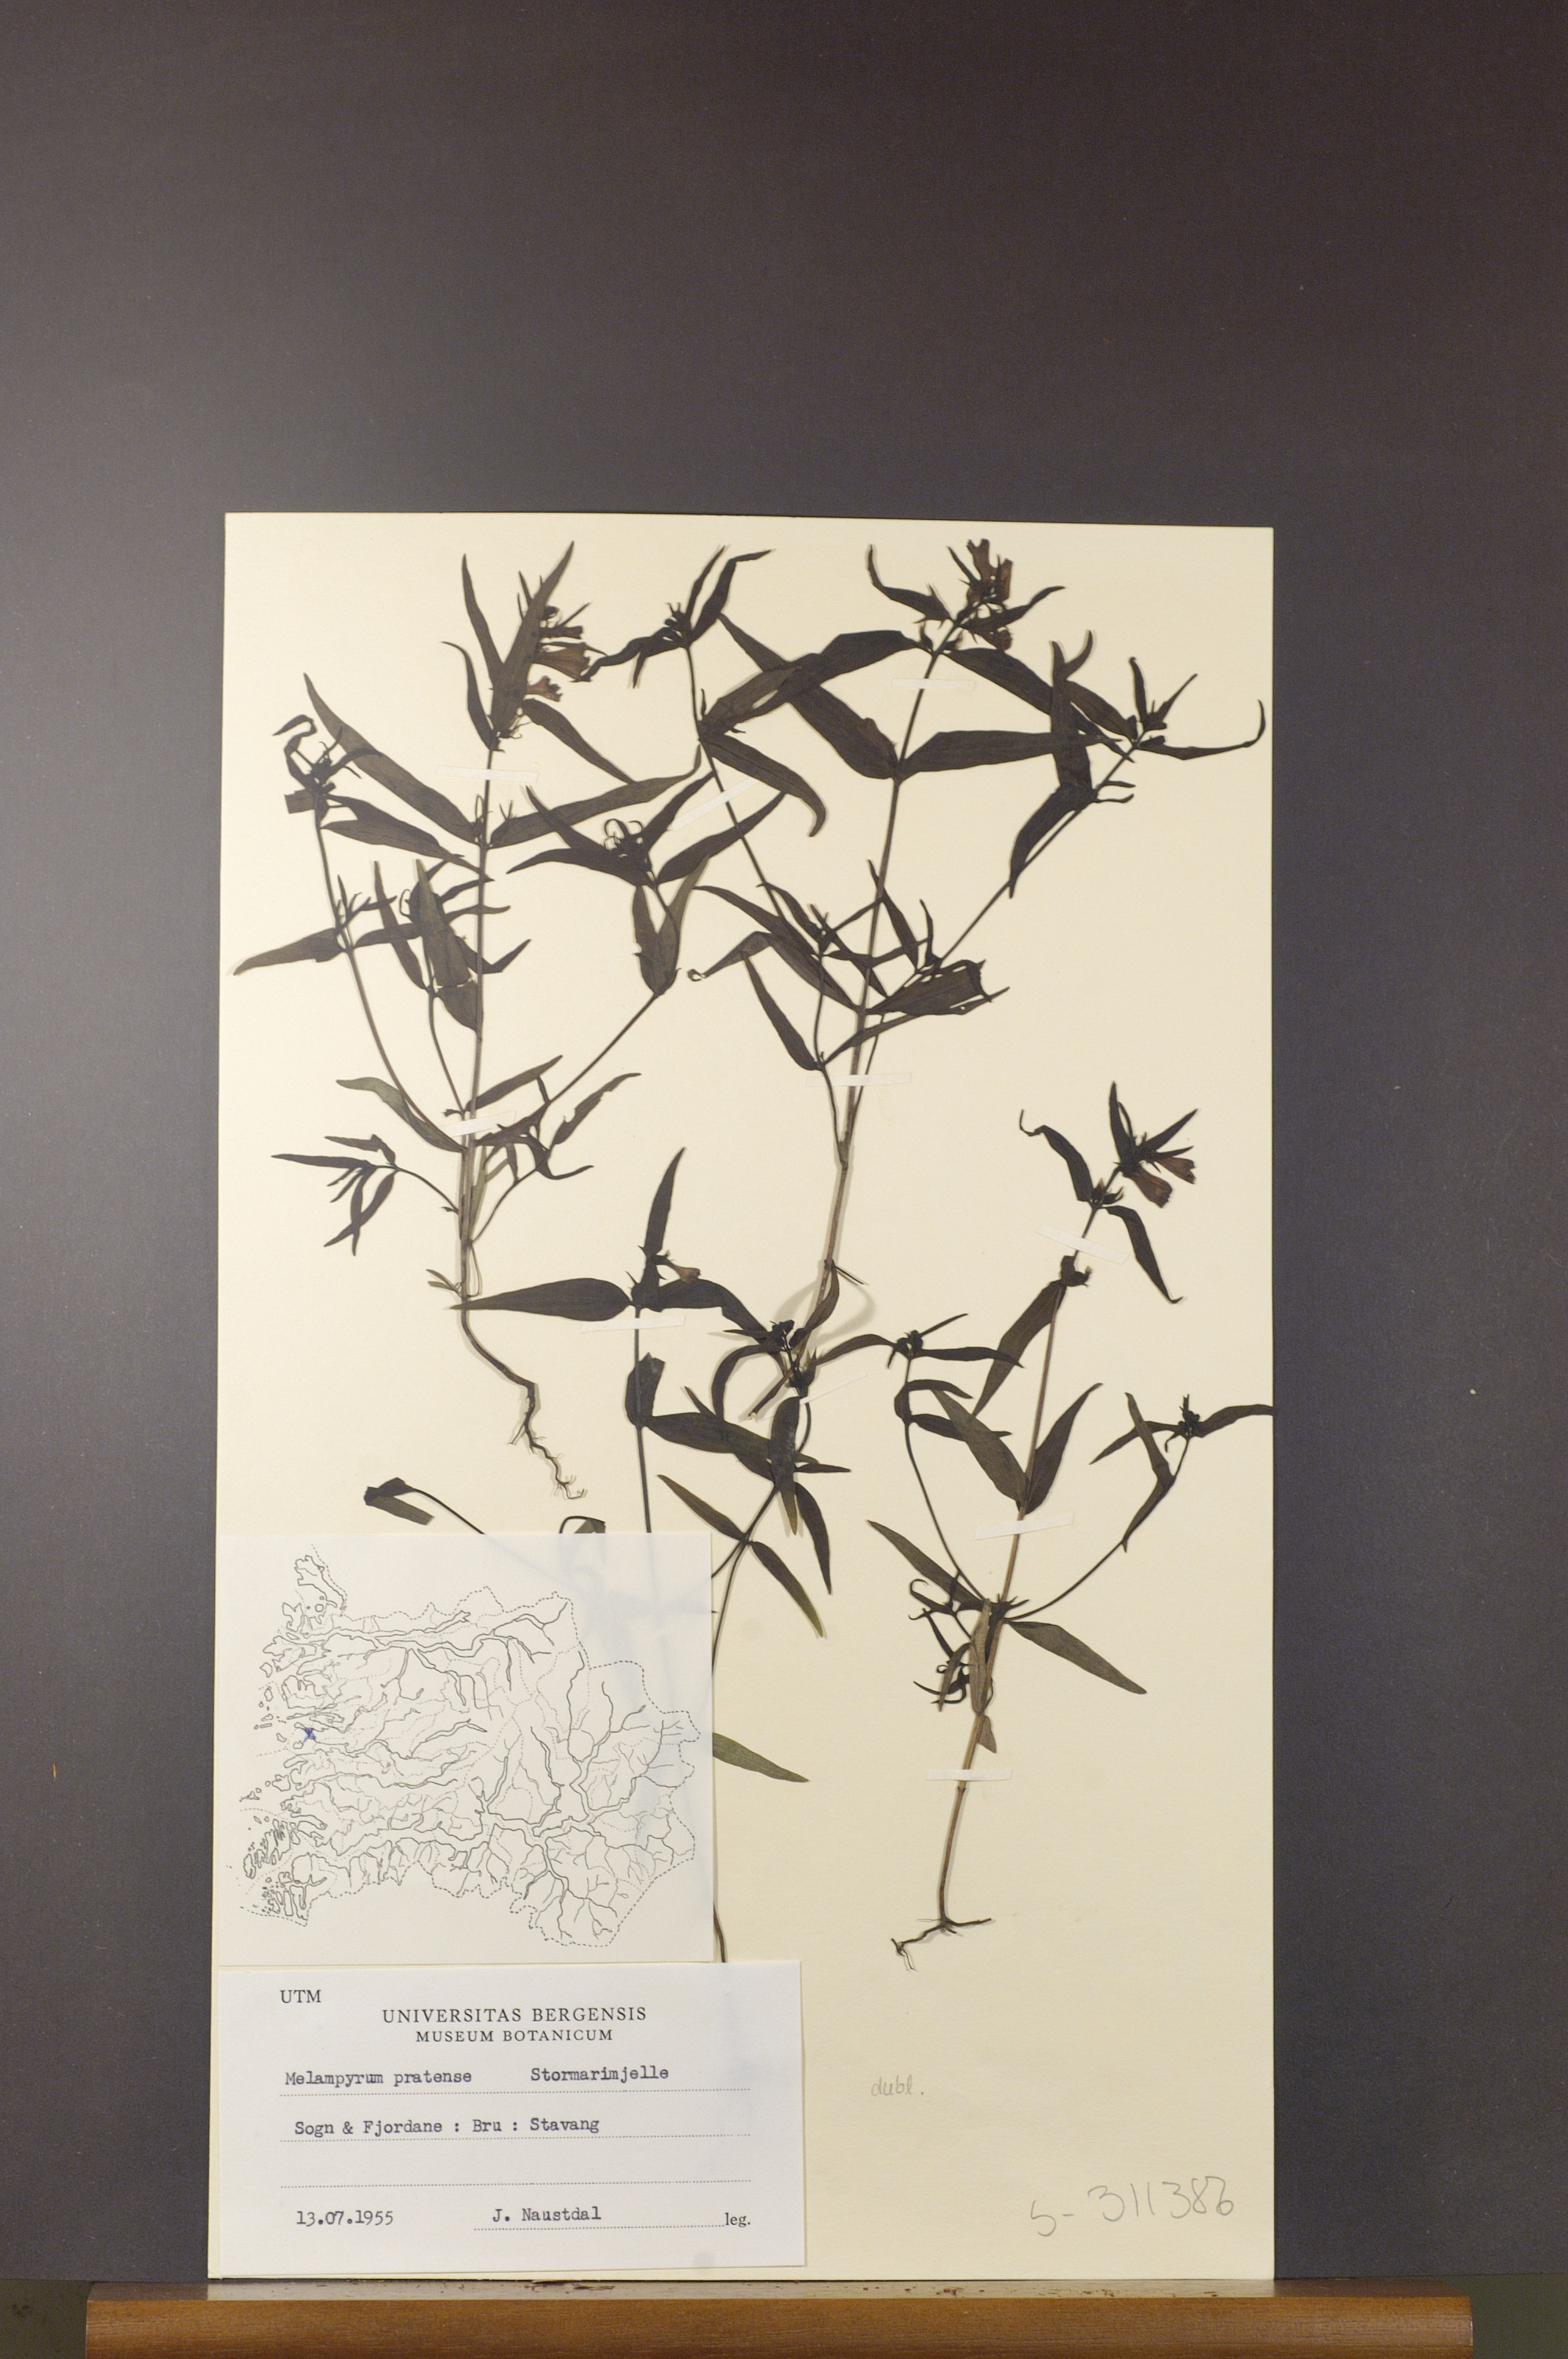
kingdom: Plantae
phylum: Tracheophyta
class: Magnoliopsida
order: Lamiales
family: Orobanchaceae
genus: Melampyrum
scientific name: Melampyrum pratense
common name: Common cow-wheat
